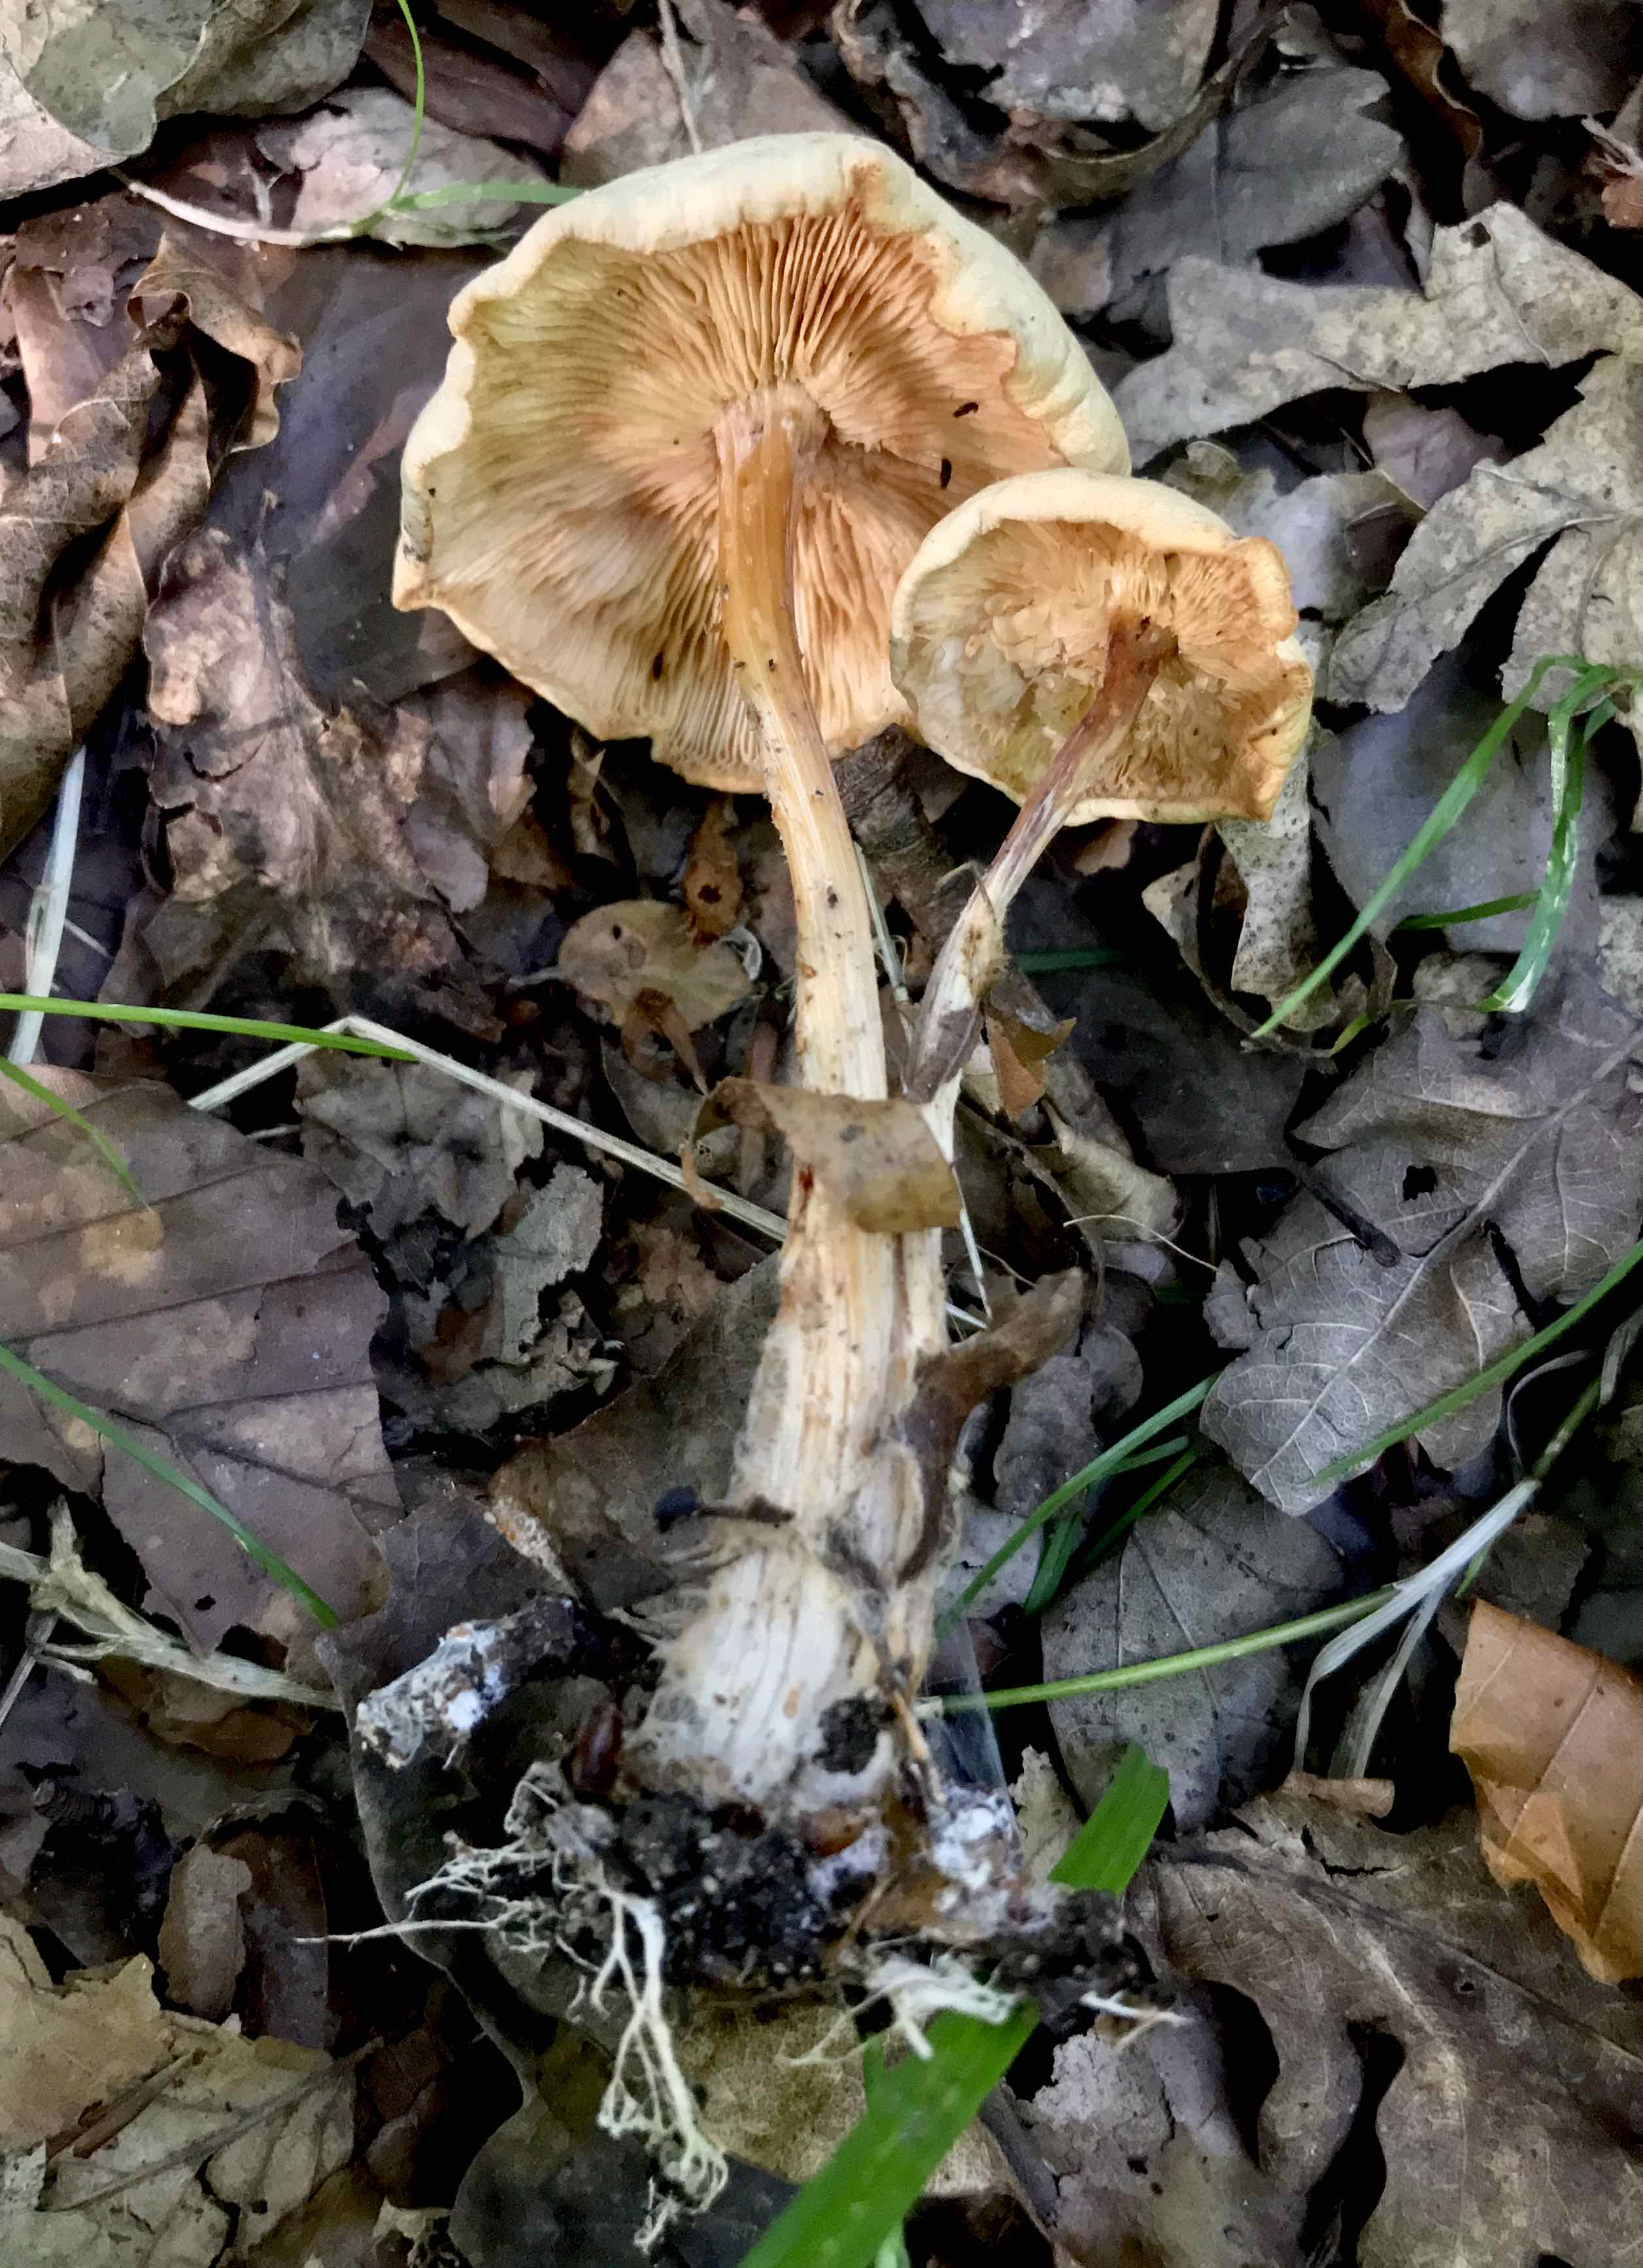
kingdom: Fungi
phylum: Basidiomycota
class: Agaricomycetes
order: Agaricales
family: Omphalotaceae
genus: Gymnopus
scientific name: Gymnopus dryophilus
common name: løv-fladhat
